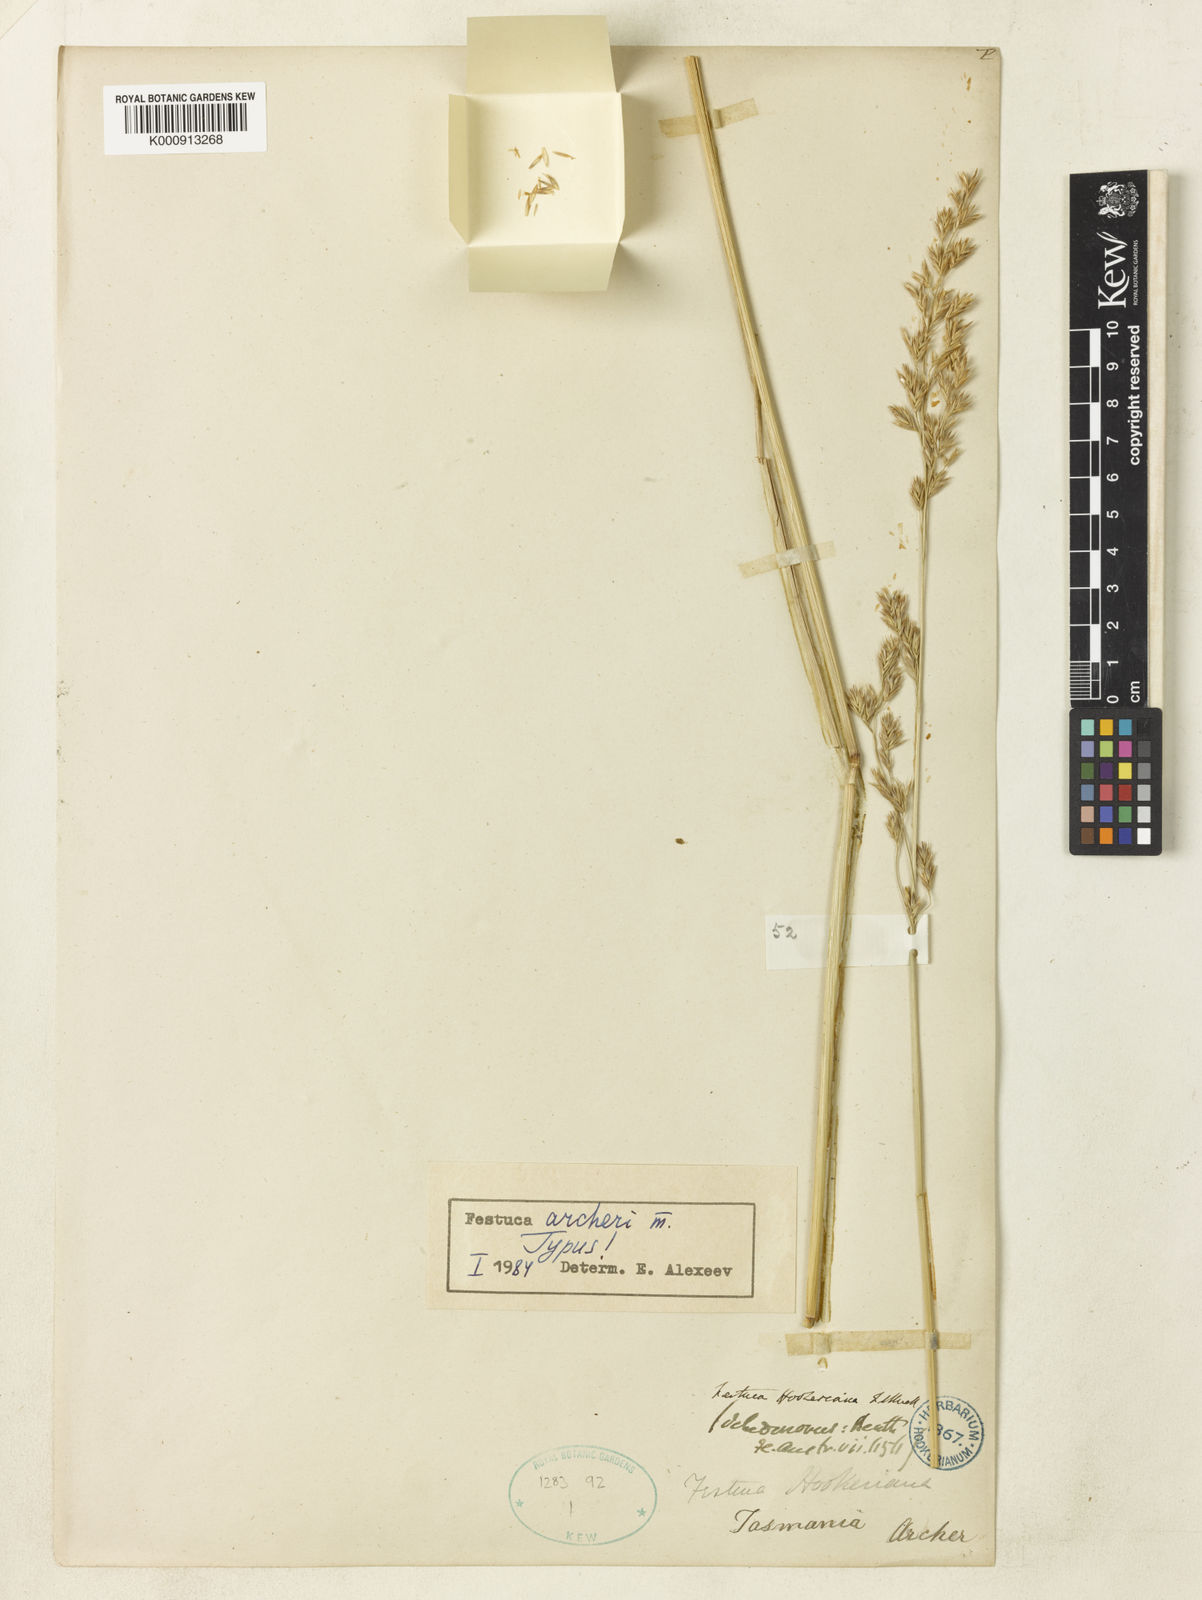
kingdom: Plantae
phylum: Tracheophyta
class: Liliopsida
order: Poales
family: Poaceae
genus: Lolium
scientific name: Lolium arundinaceum
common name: Reed fescue
